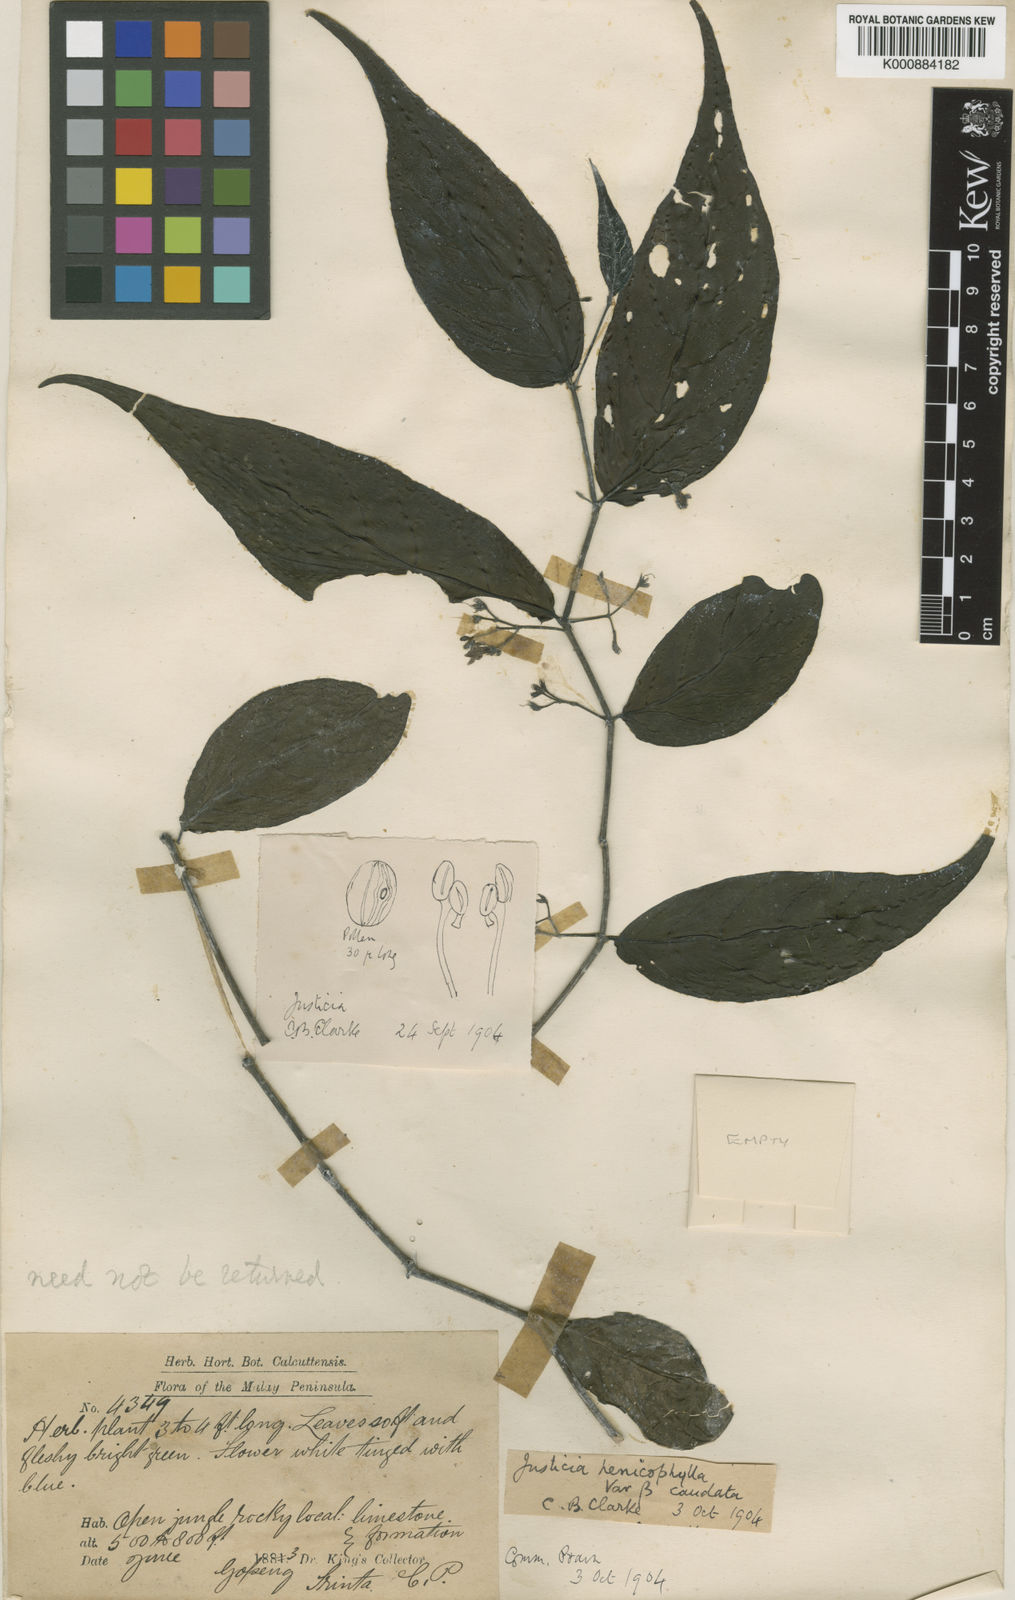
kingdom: Plantae
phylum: Tracheophyta
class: Magnoliopsida
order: Lamiales
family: Acanthaceae
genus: Justicia
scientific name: Justicia alternifolia
